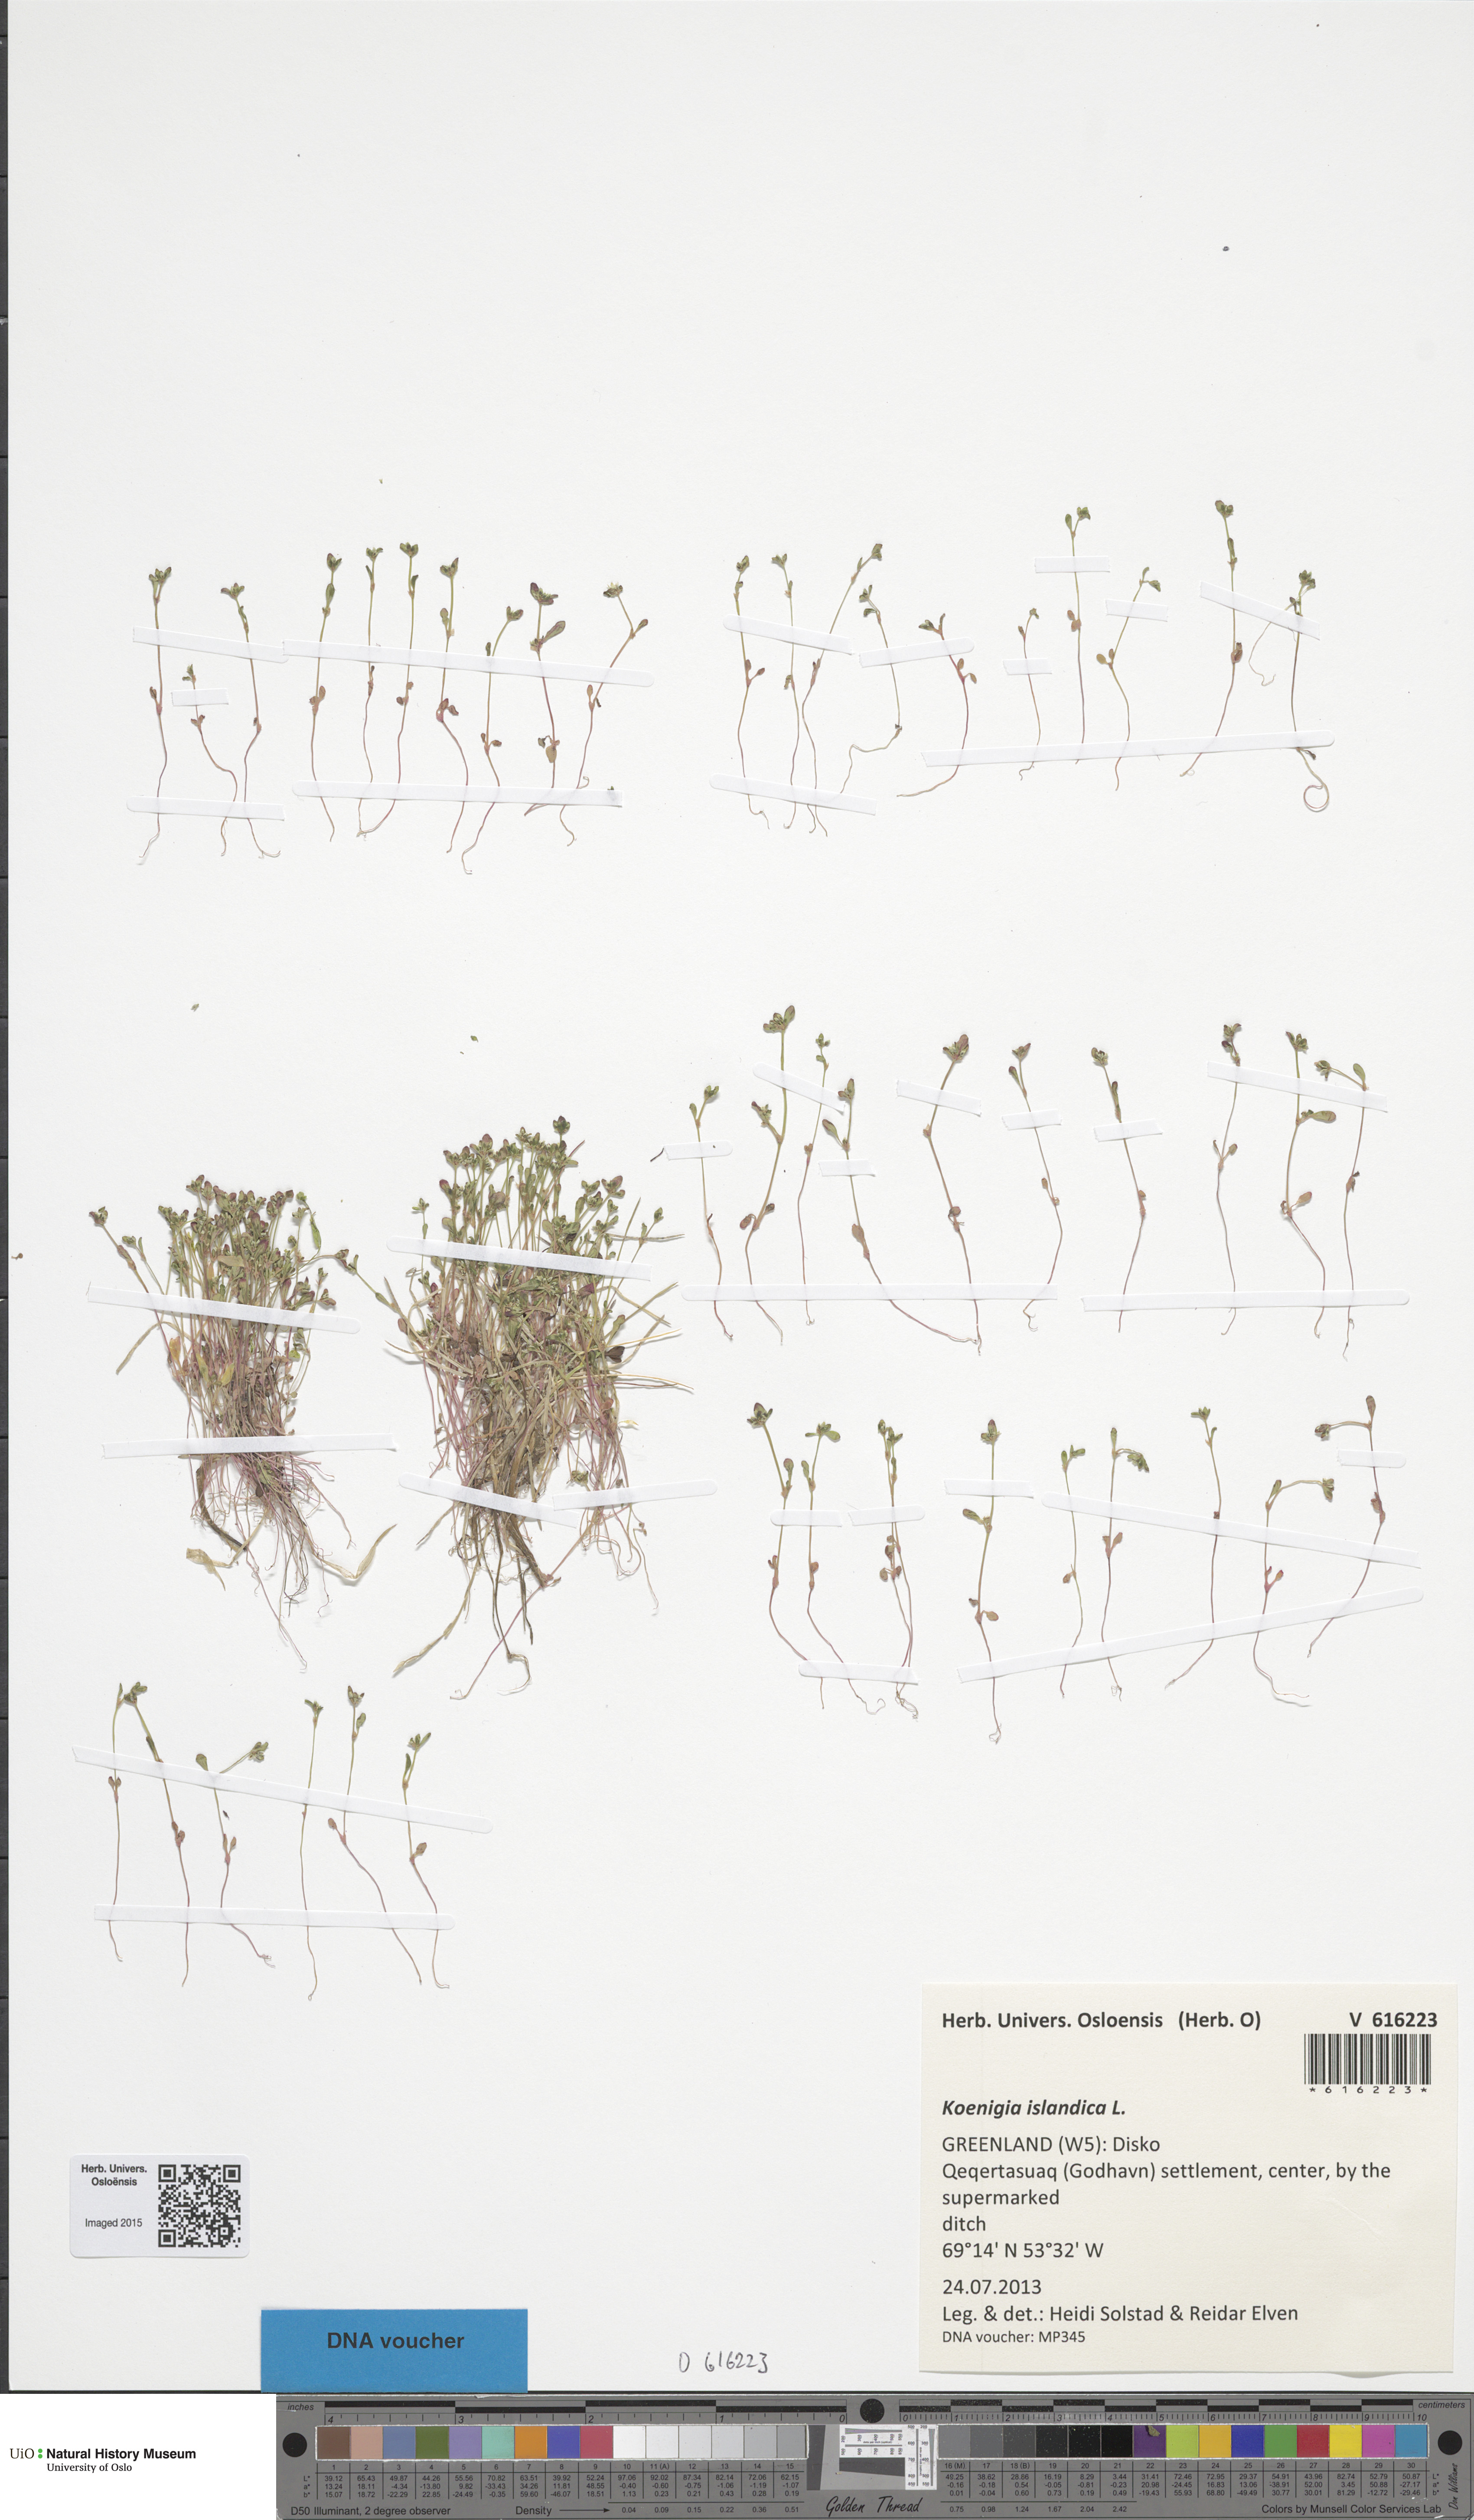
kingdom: Plantae
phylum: Tracheophyta
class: Magnoliopsida
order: Caryophyllales
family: Polygonaceae
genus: Koenigia
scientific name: Koenigia islandica
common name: Iceland-purslane
